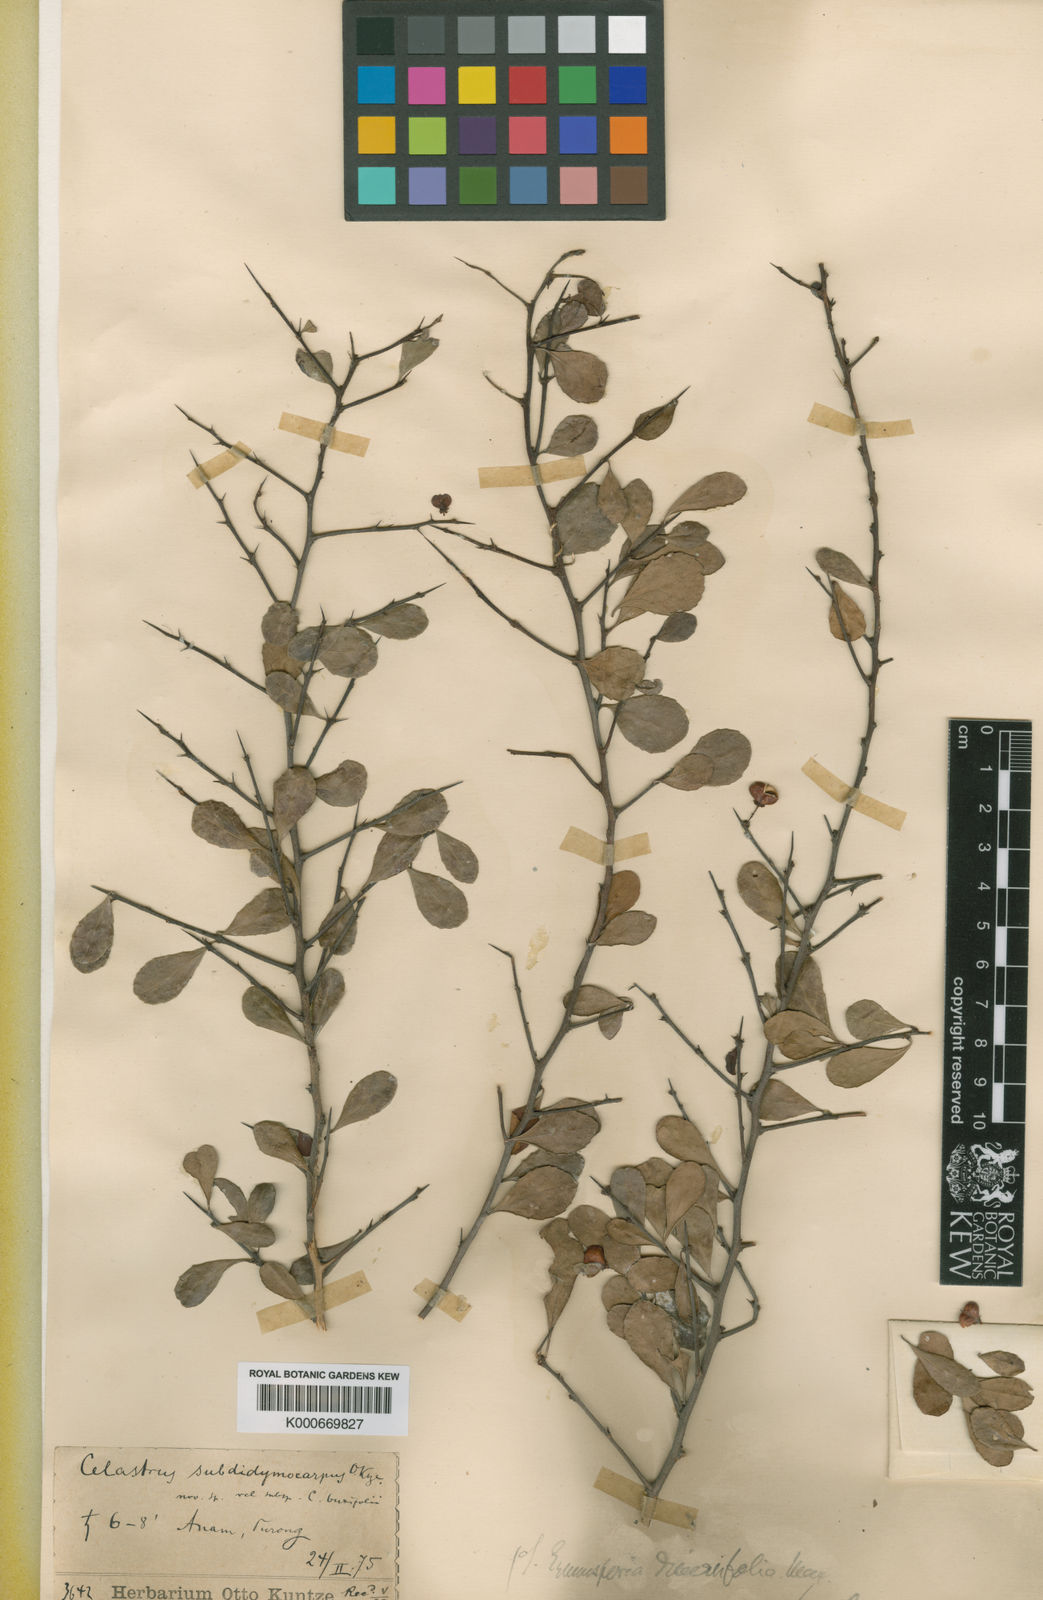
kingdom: Plantae
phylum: Tracheophyta
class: Magnoliopsida
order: Celastrales
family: Celastraceae
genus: Gymnosporia
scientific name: Gymnosporia diversifolia
